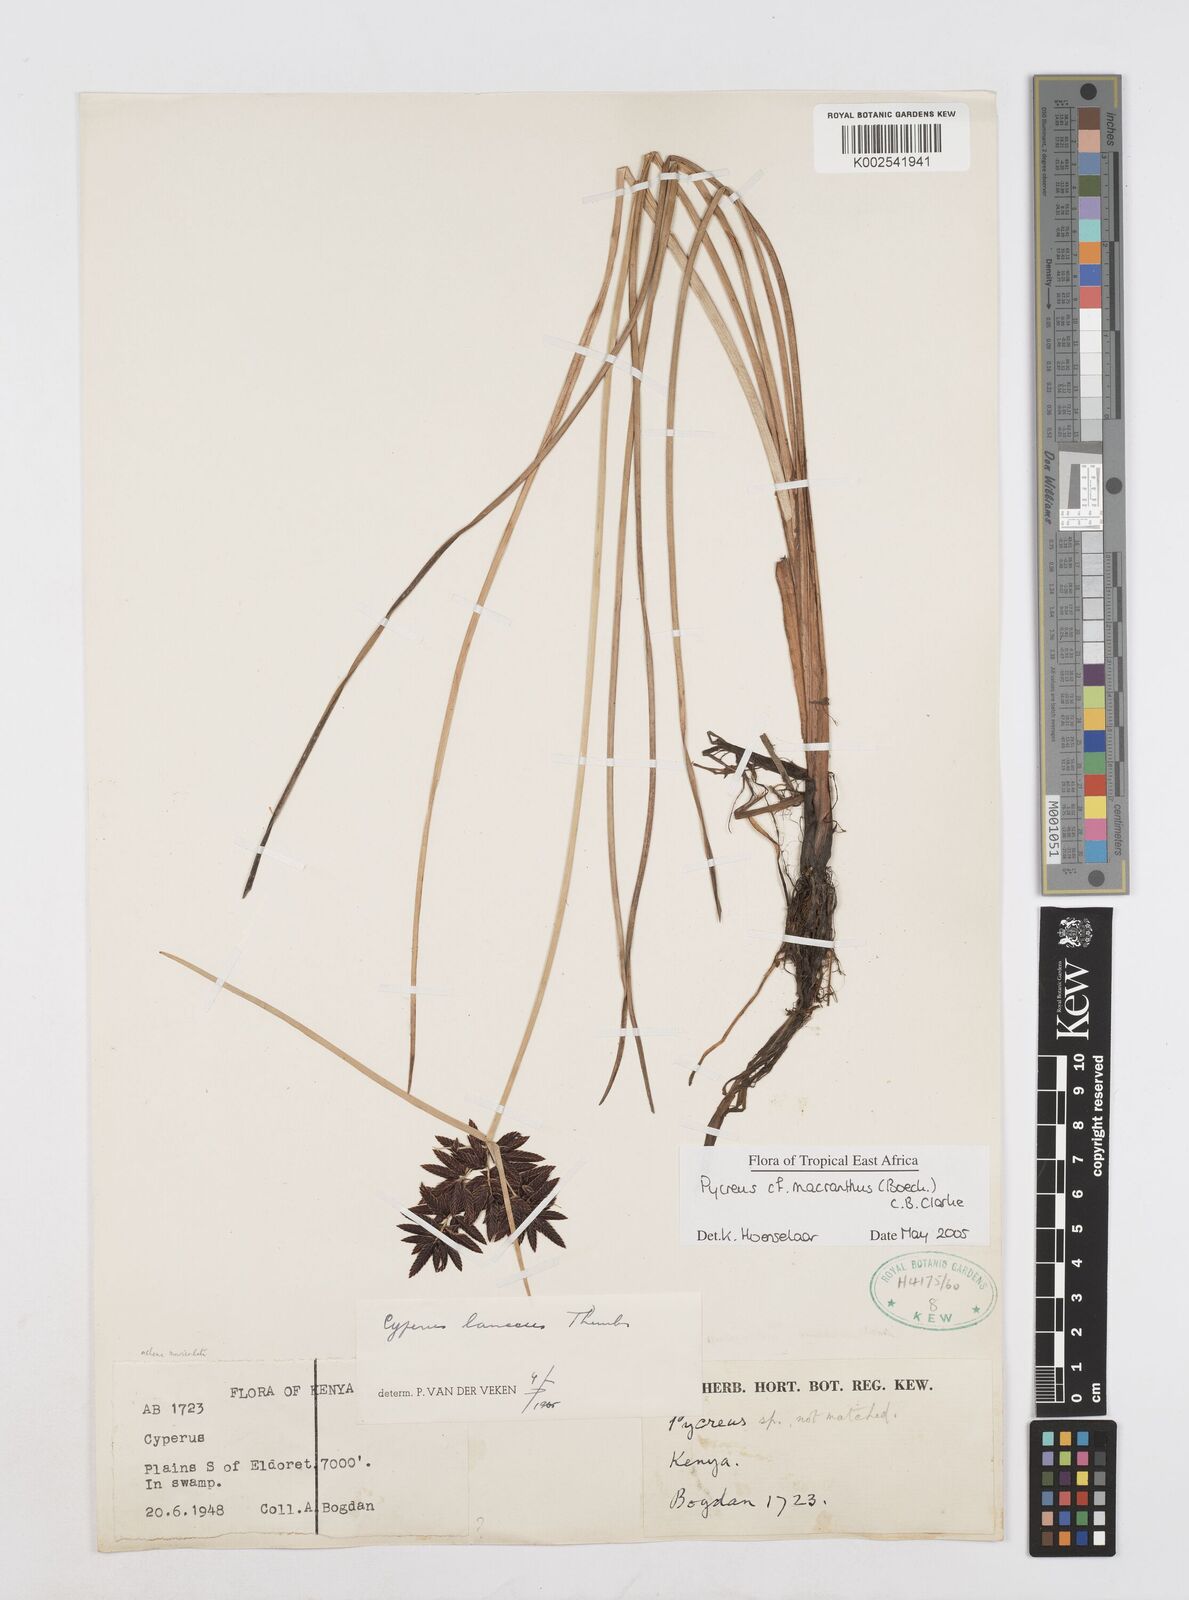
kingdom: Plantae
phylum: Tracheophyta
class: Liliopsida
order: Poales
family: Cyperaceae
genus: Cyperus
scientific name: Cyperus
